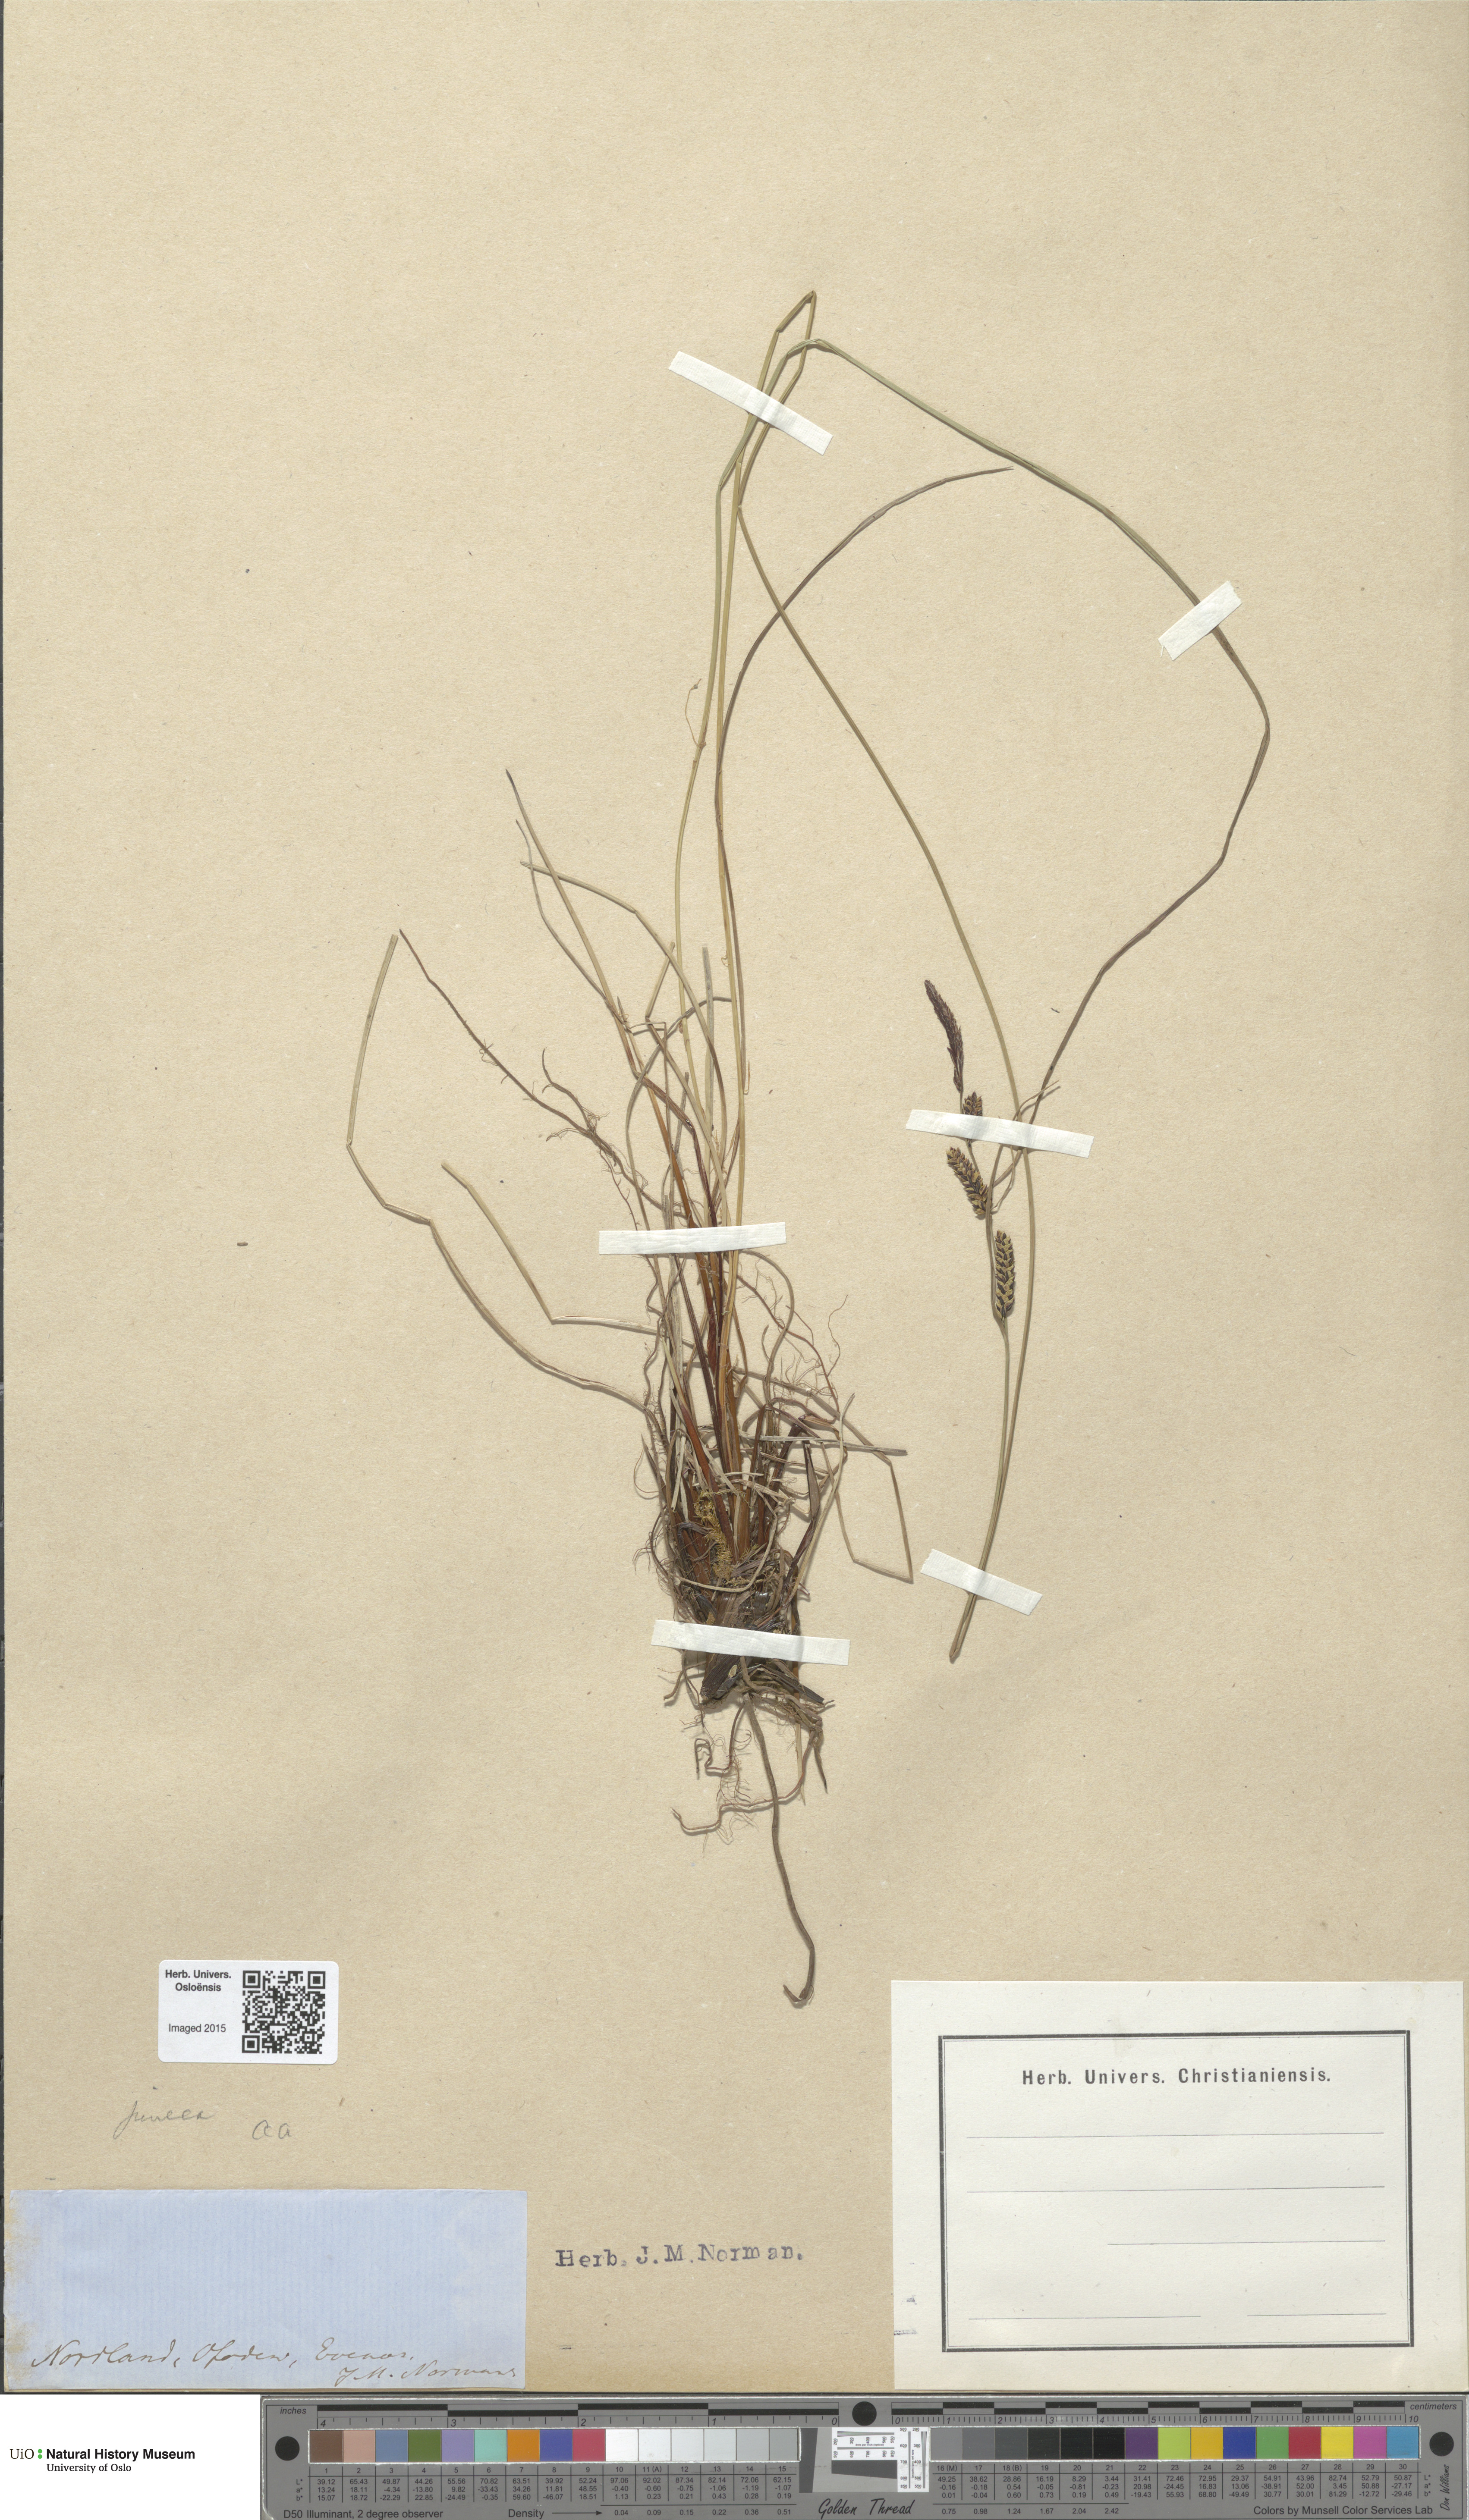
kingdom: Plantae
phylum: Tracheophyta
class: Liliopsida
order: Poales
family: Cyperaceae
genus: Carex
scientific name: Carex nigra
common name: Common sedge
